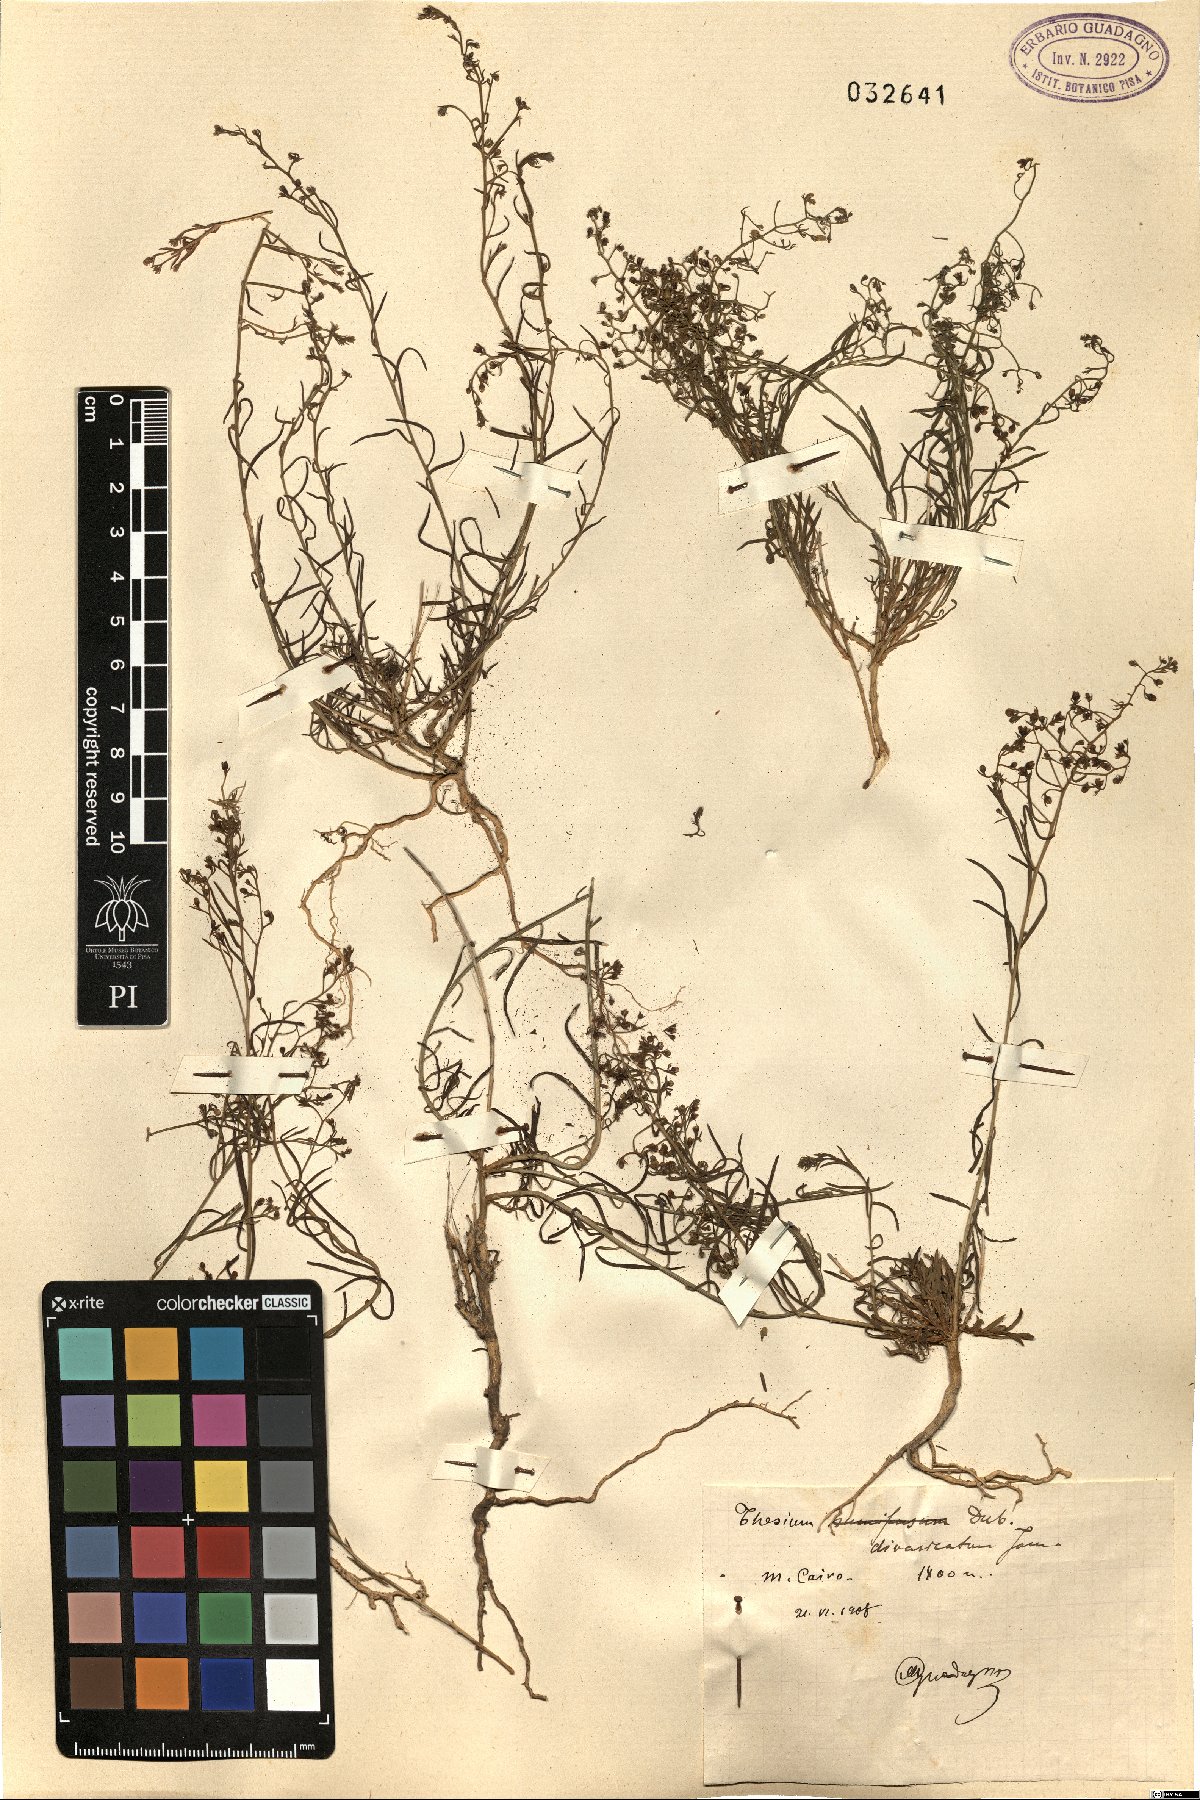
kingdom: Plantae
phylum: Tracheophyta
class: Magnoliopsida
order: Santalales
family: Thesiaceae
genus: Thesium
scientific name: Thesium divaricatum
